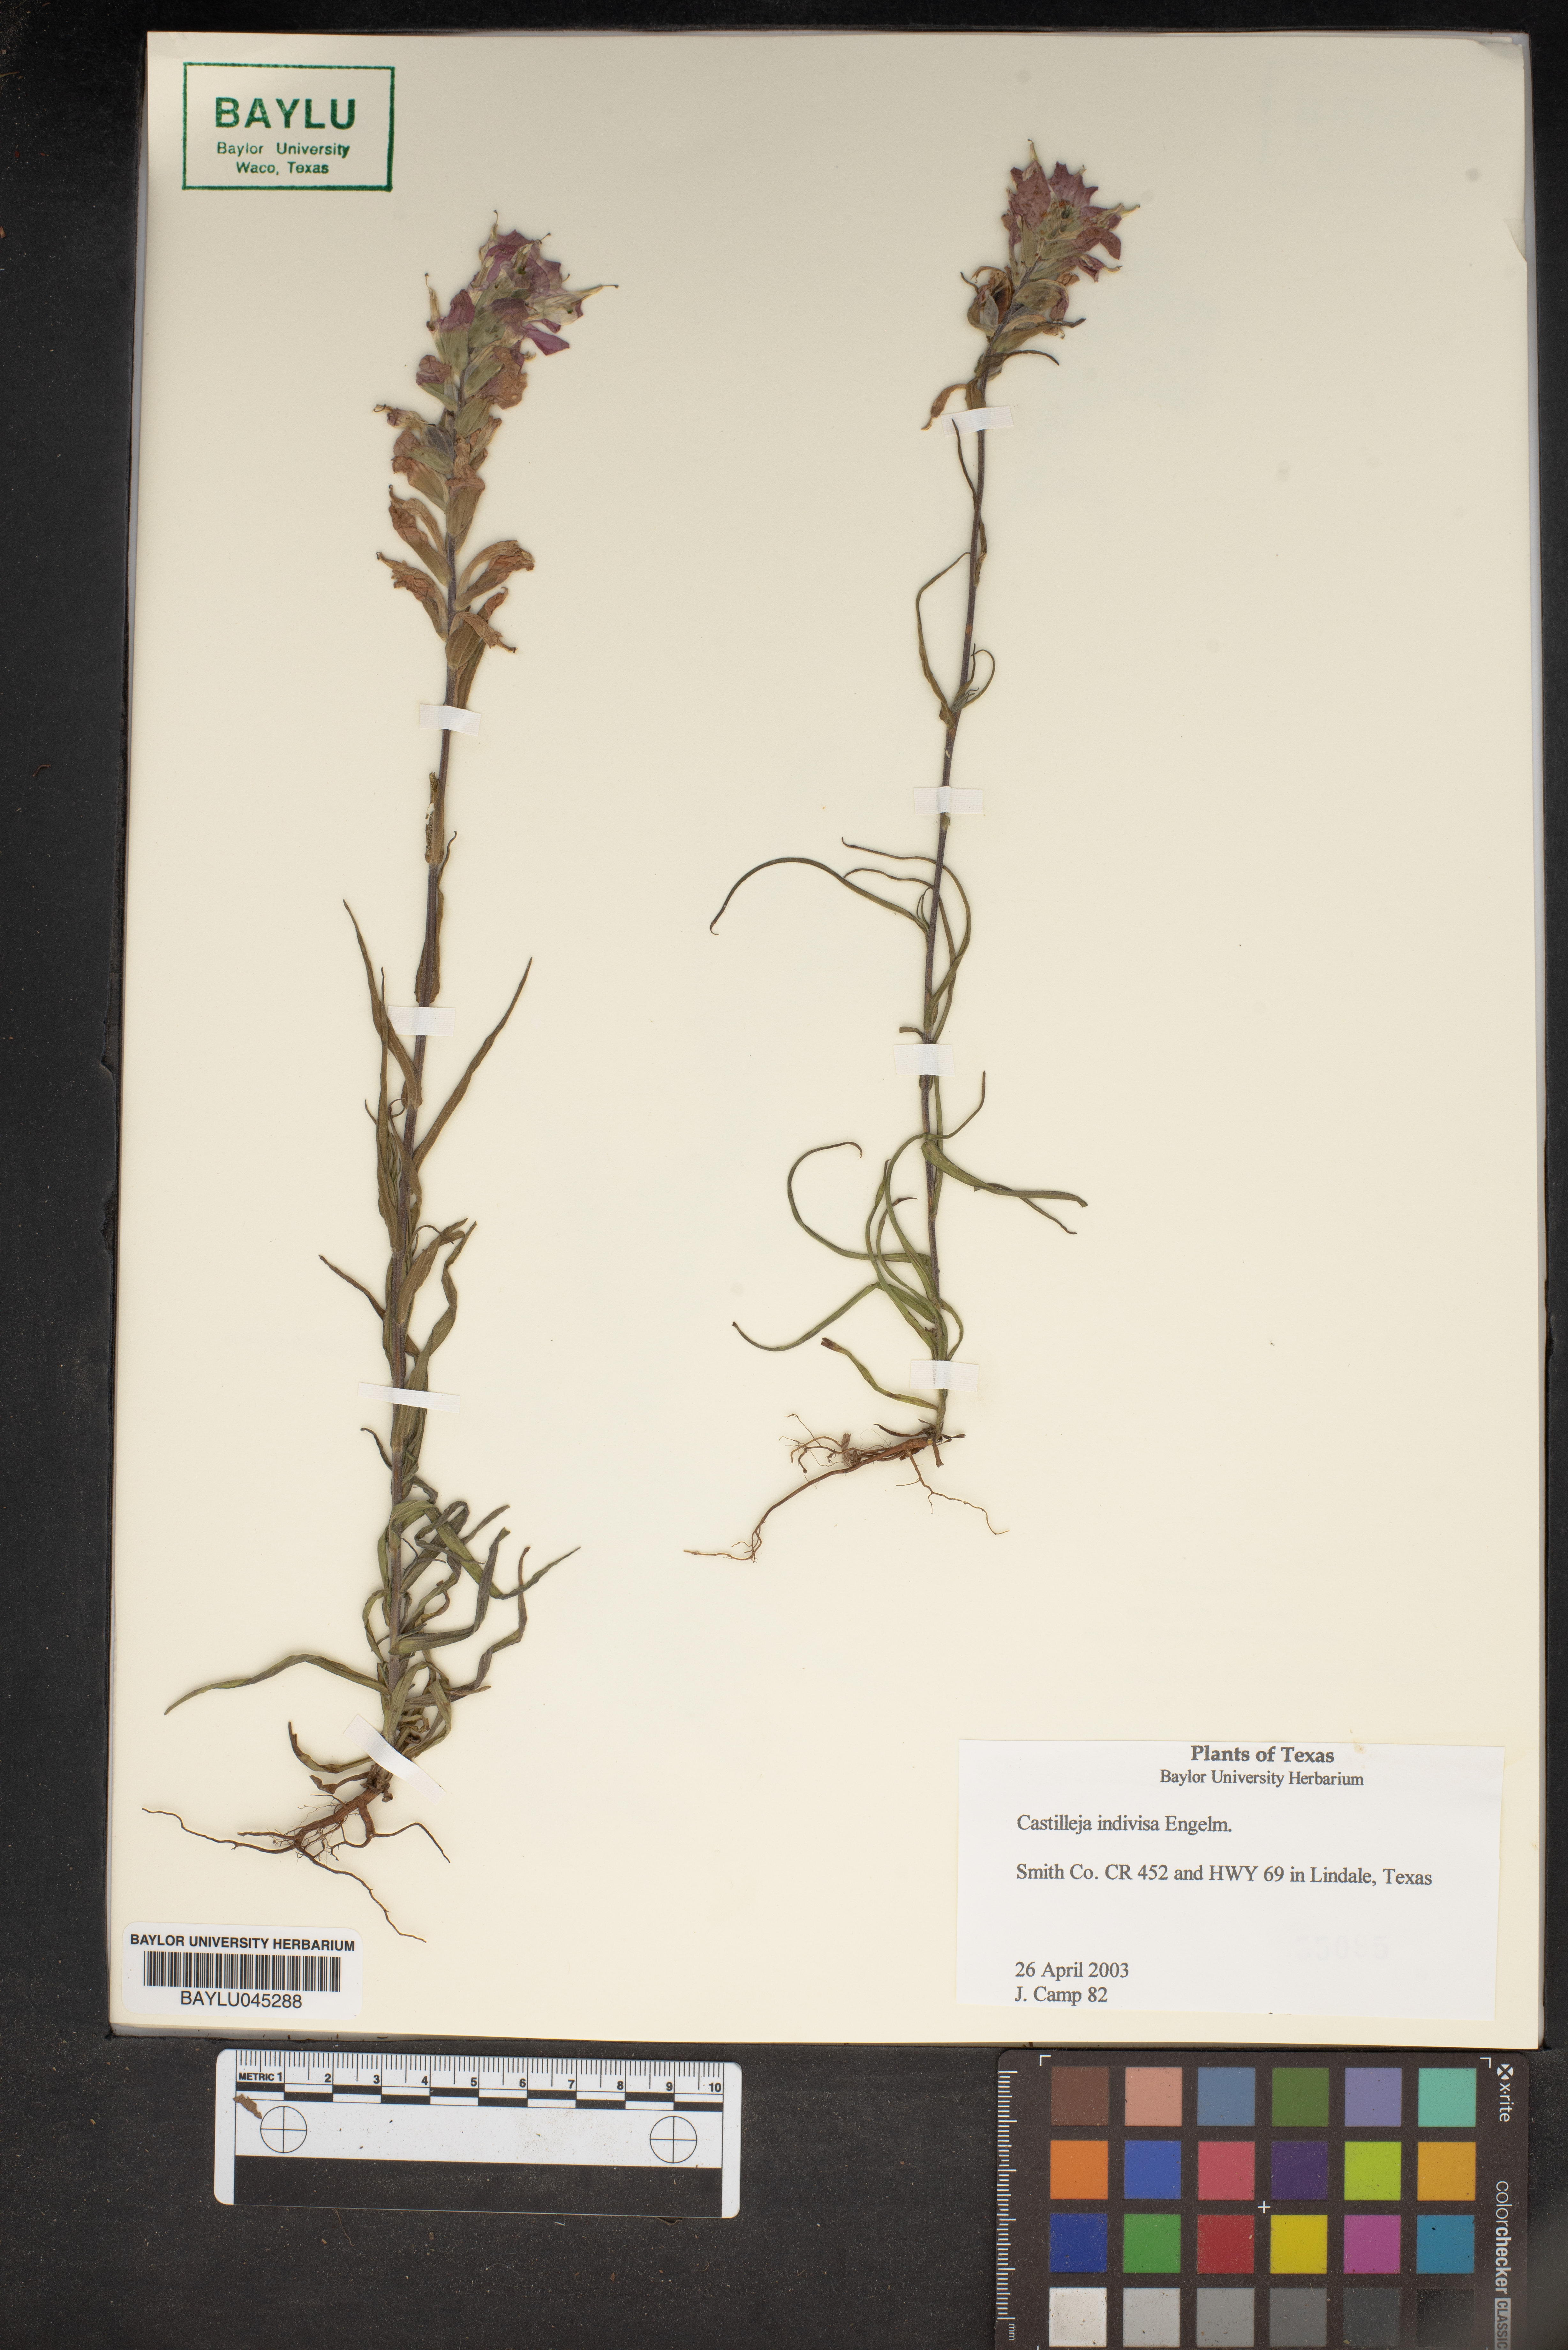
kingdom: Plantae
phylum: Tracheophyta
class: Magnoliopsida
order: Lamiales
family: Orobanchaceae
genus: Castilleja
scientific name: Castilleja indivisa
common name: Texas paintbrush
